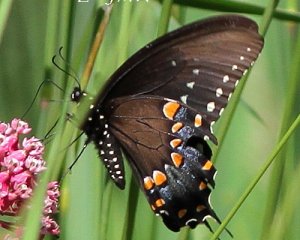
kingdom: Animalia
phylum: Arthropoda
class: Insecta
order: Lepidoptera
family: Papilionidae
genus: Pterourus
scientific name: Pterourus troilus
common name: Spicebush Swallowtail
